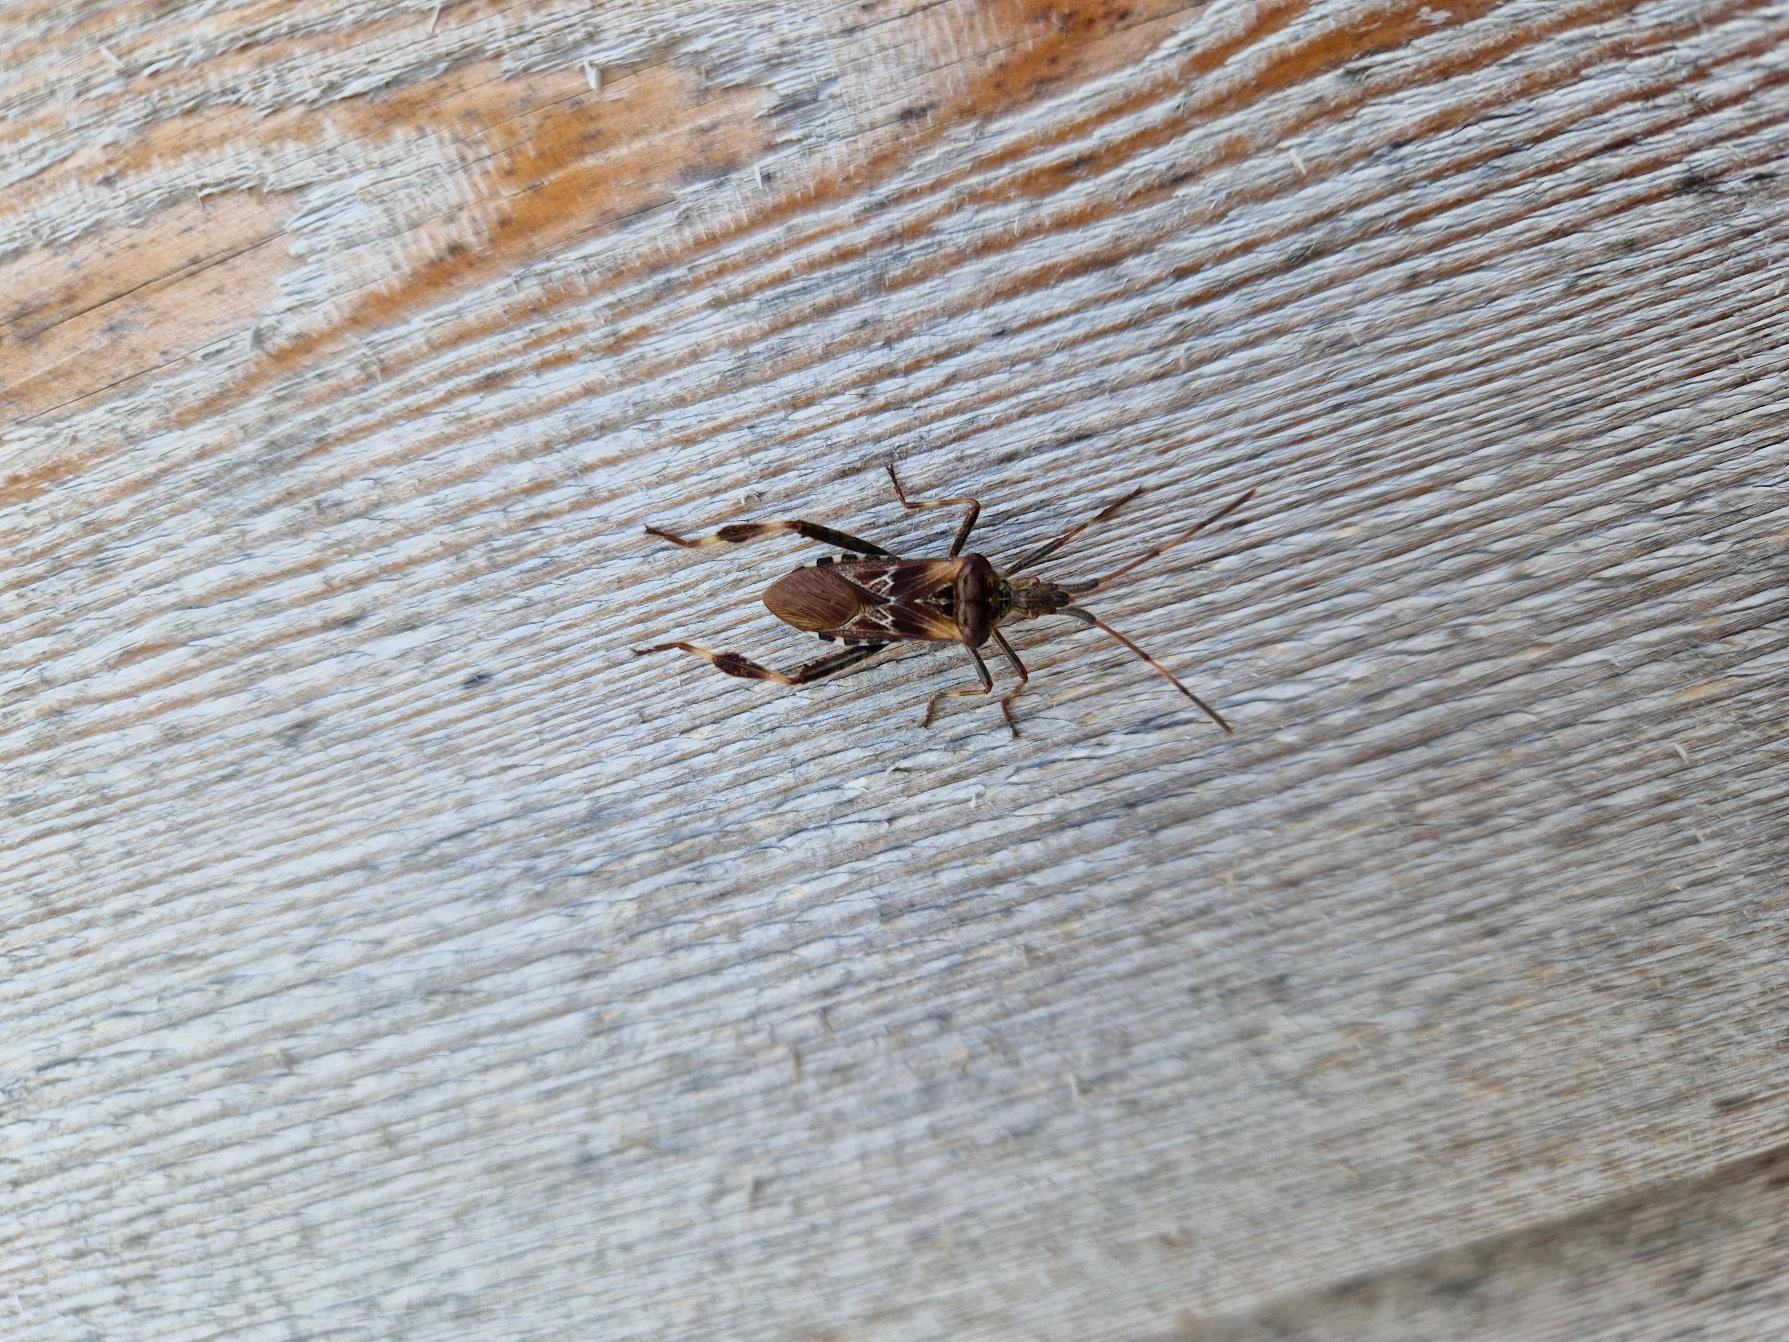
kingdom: Animalia
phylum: Arthropoda
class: Insecta
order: Hemiptera
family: Coreidae
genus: Leptoglossus
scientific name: Leptoglossus occidentalis
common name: Amerikansk fyrretæge
